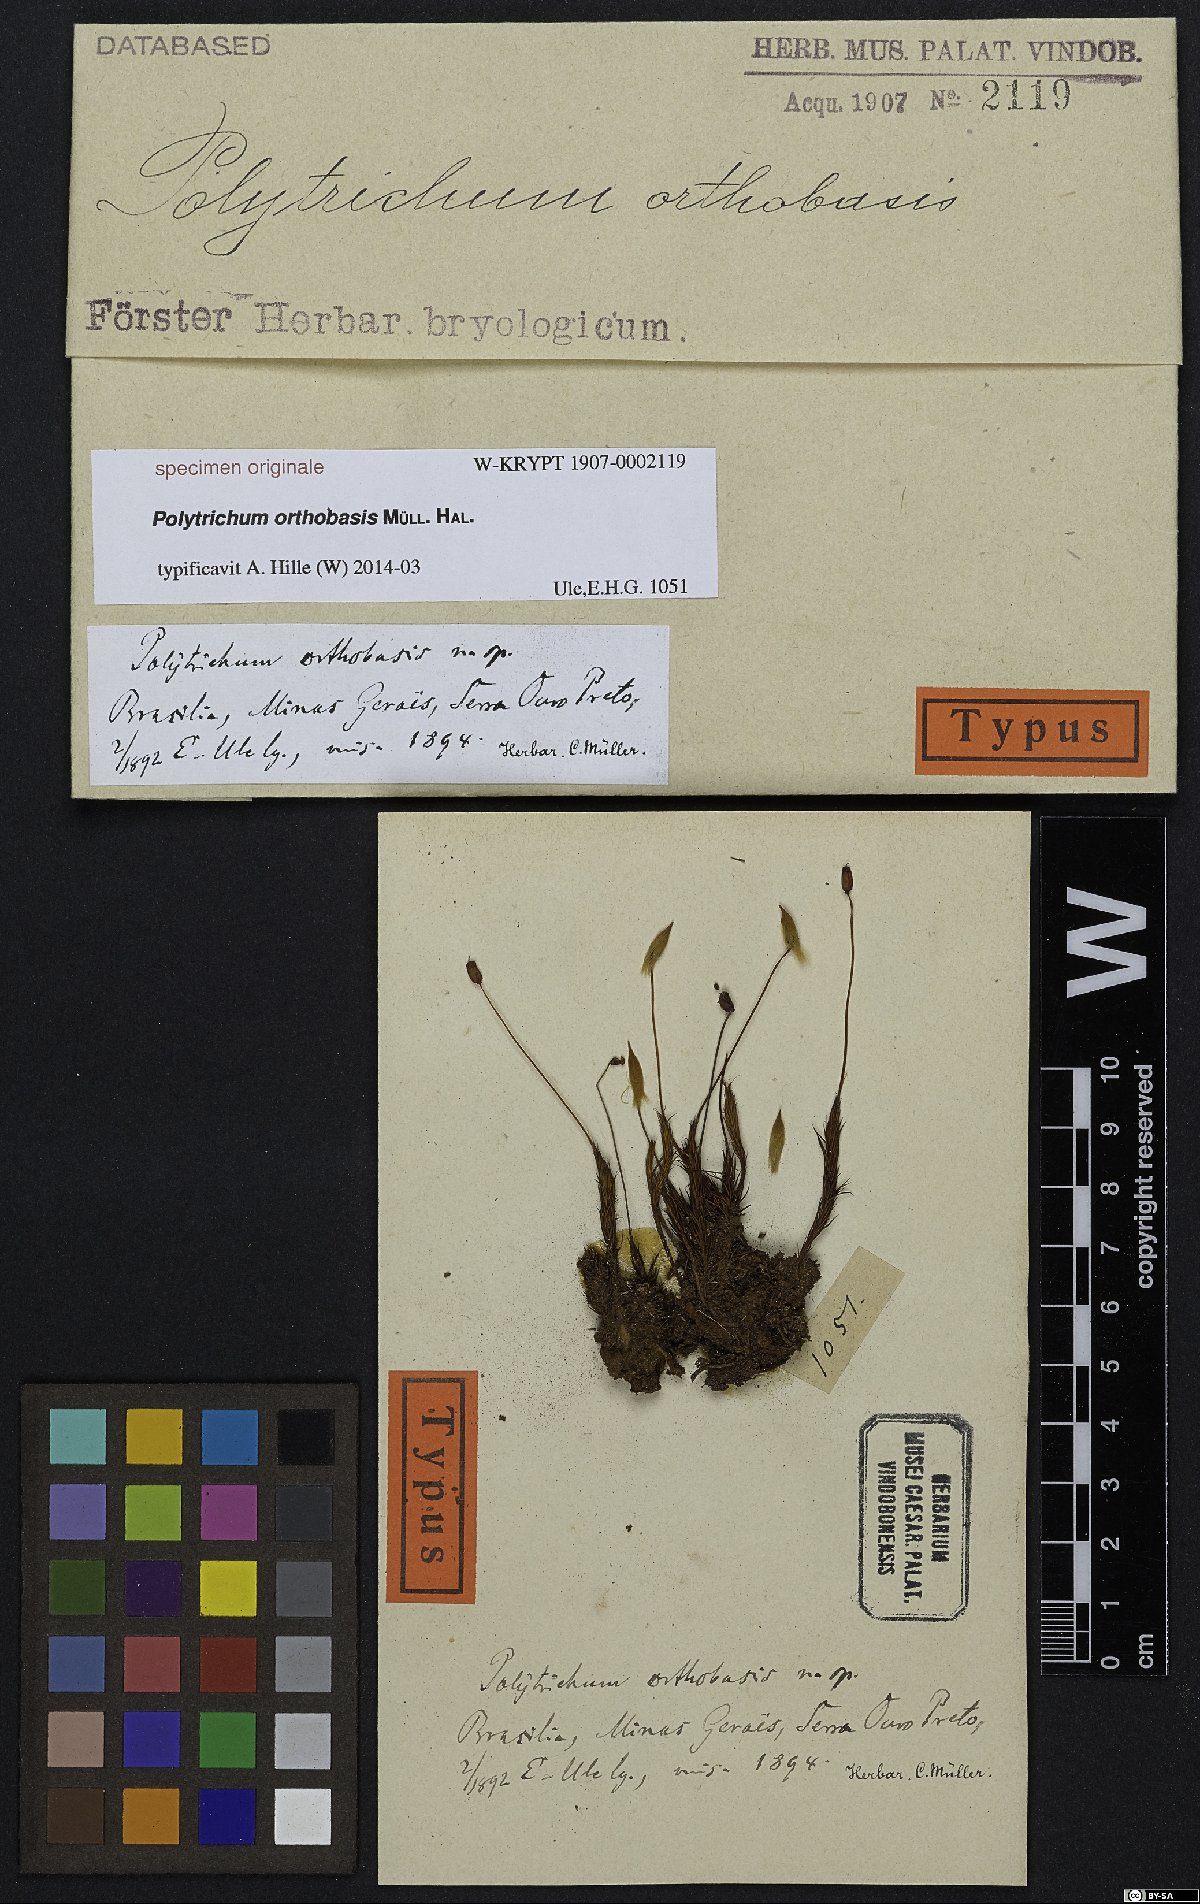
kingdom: Plantae
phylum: Bryophyta
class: Polytrichopsida
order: Polytrichales
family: Polytrichaceae
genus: Polytrichum
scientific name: Polytrichum
